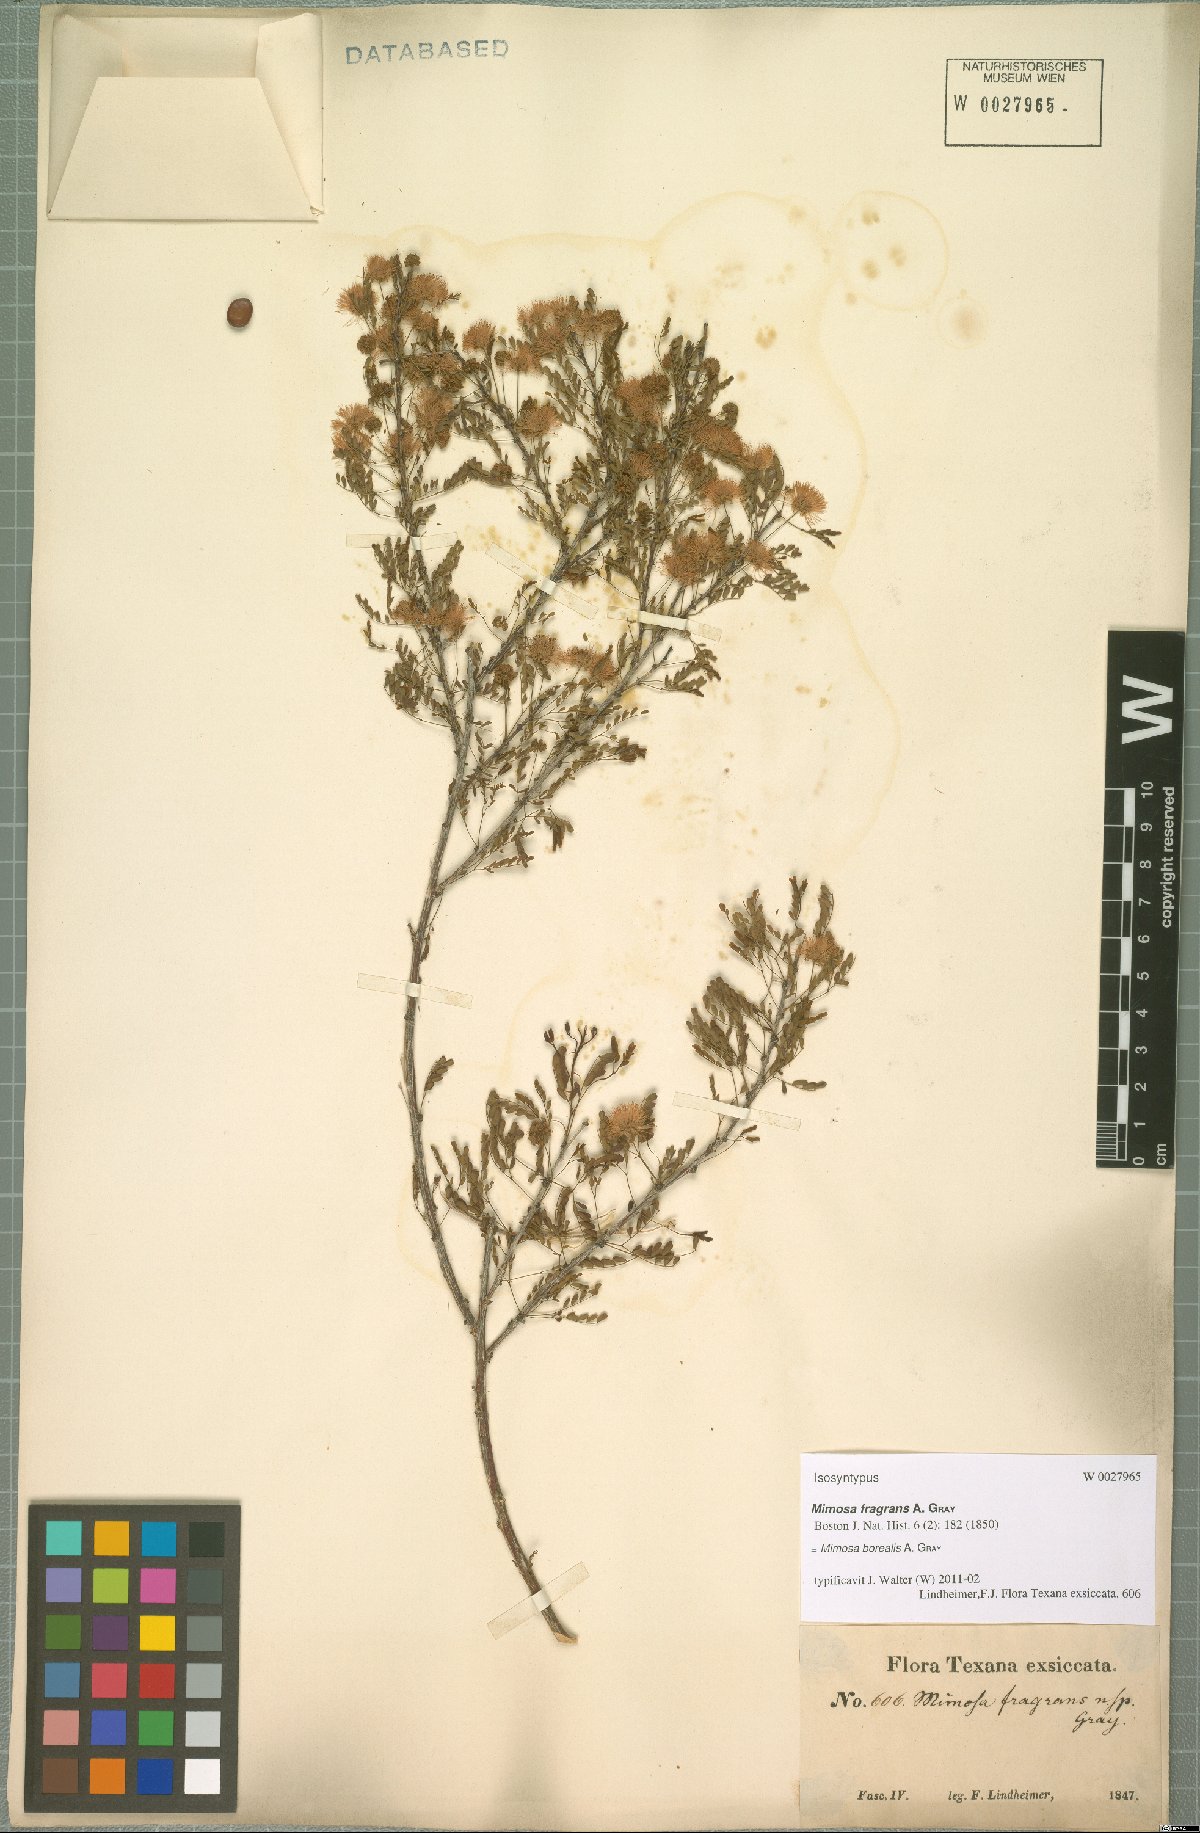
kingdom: Plantae
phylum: Tracheophyta
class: Magnoliopsida
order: Fabales
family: Fabaceae
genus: Mimosa
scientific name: Mimosa borealis
